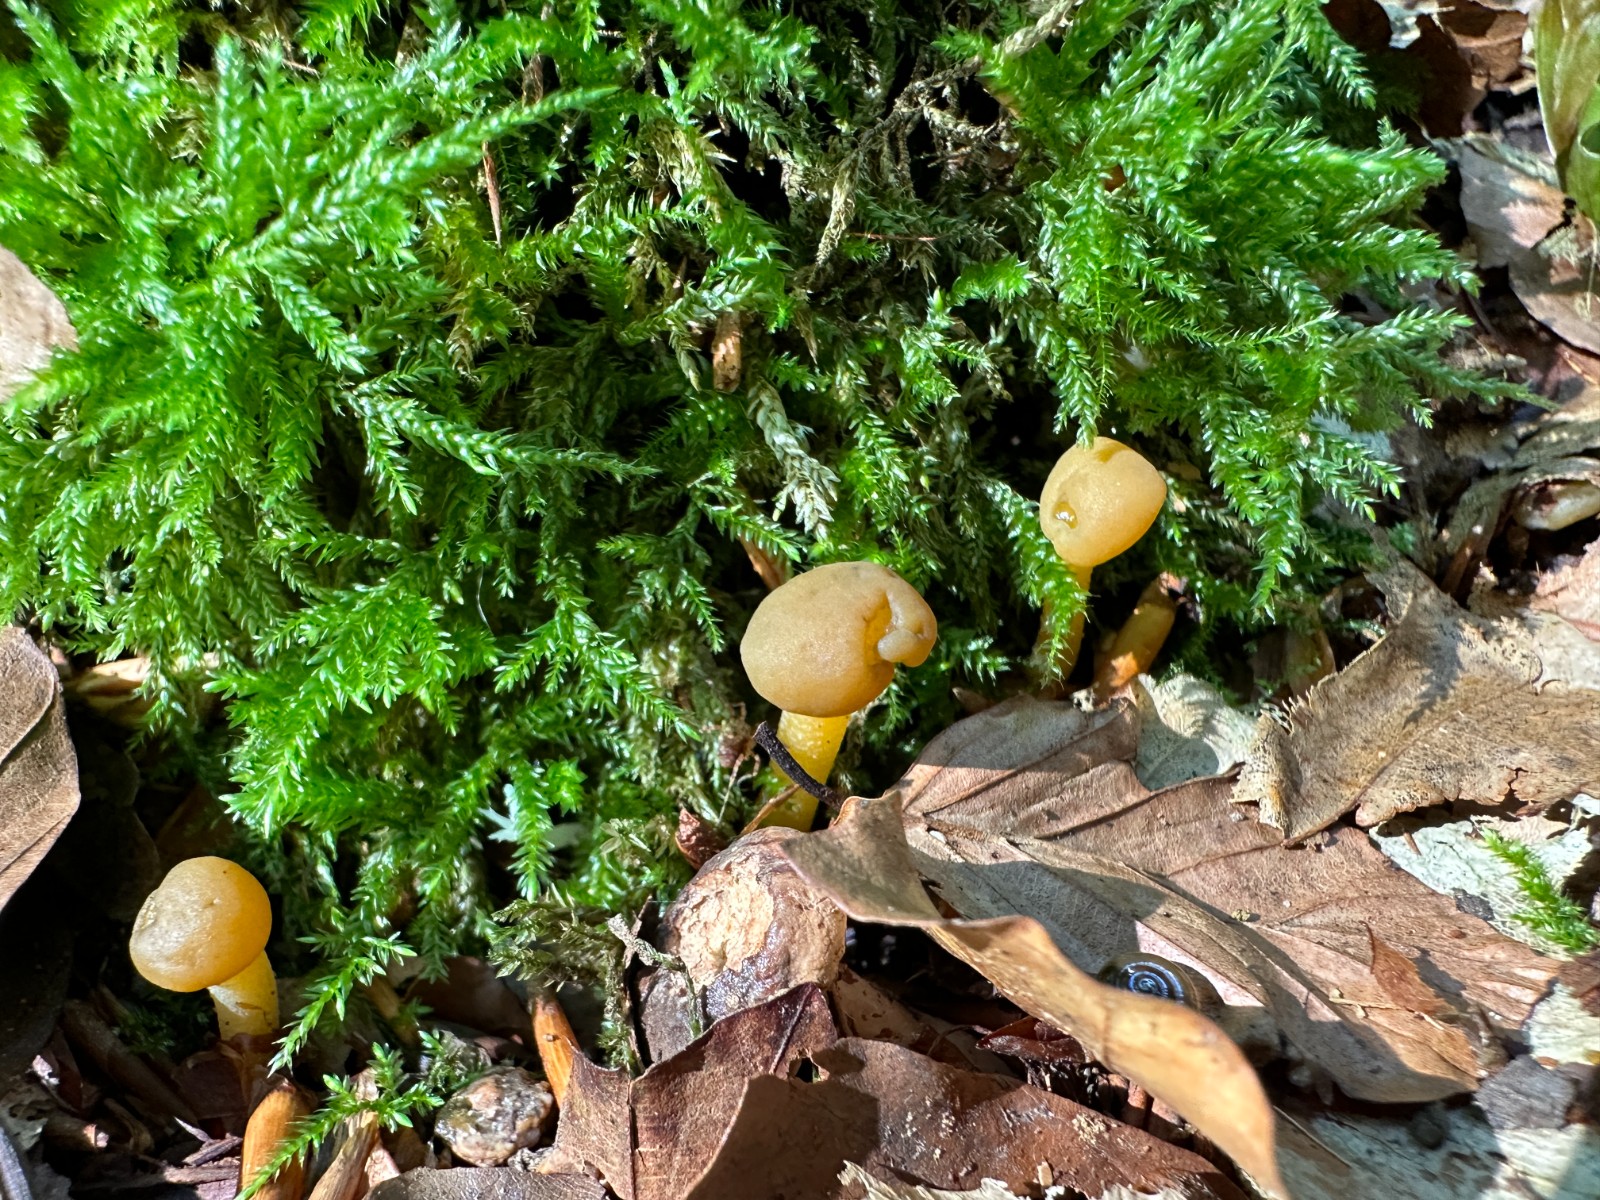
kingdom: Fungi
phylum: Ascomycota
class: Leotiomycetes
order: Leotiales
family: Leotiaceae
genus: Leotia
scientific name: Leotia lubrica
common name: ravsvamp
